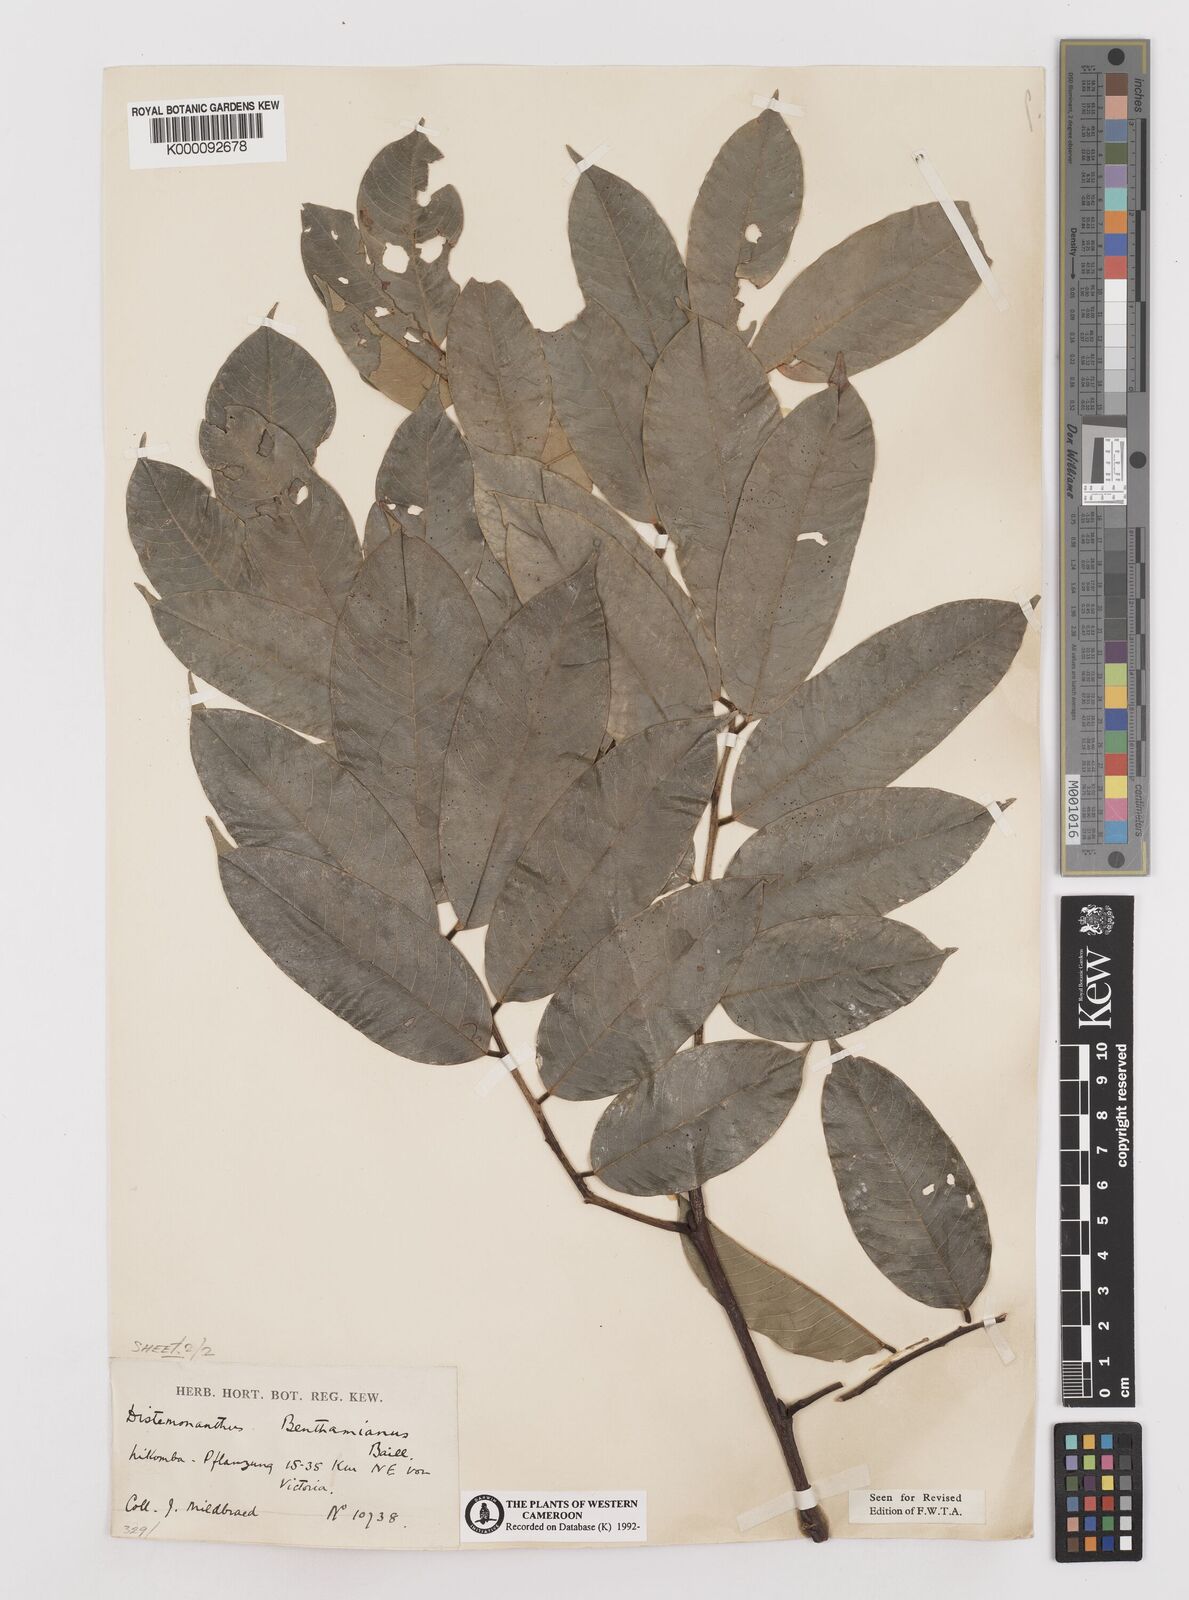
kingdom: Plantae
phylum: Tracheophyta
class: Magnoliopsida
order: Fabales
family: Fabaceae
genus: Distemonanthus
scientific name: Distemonanthus benthamianus
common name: Yellow satinwood
